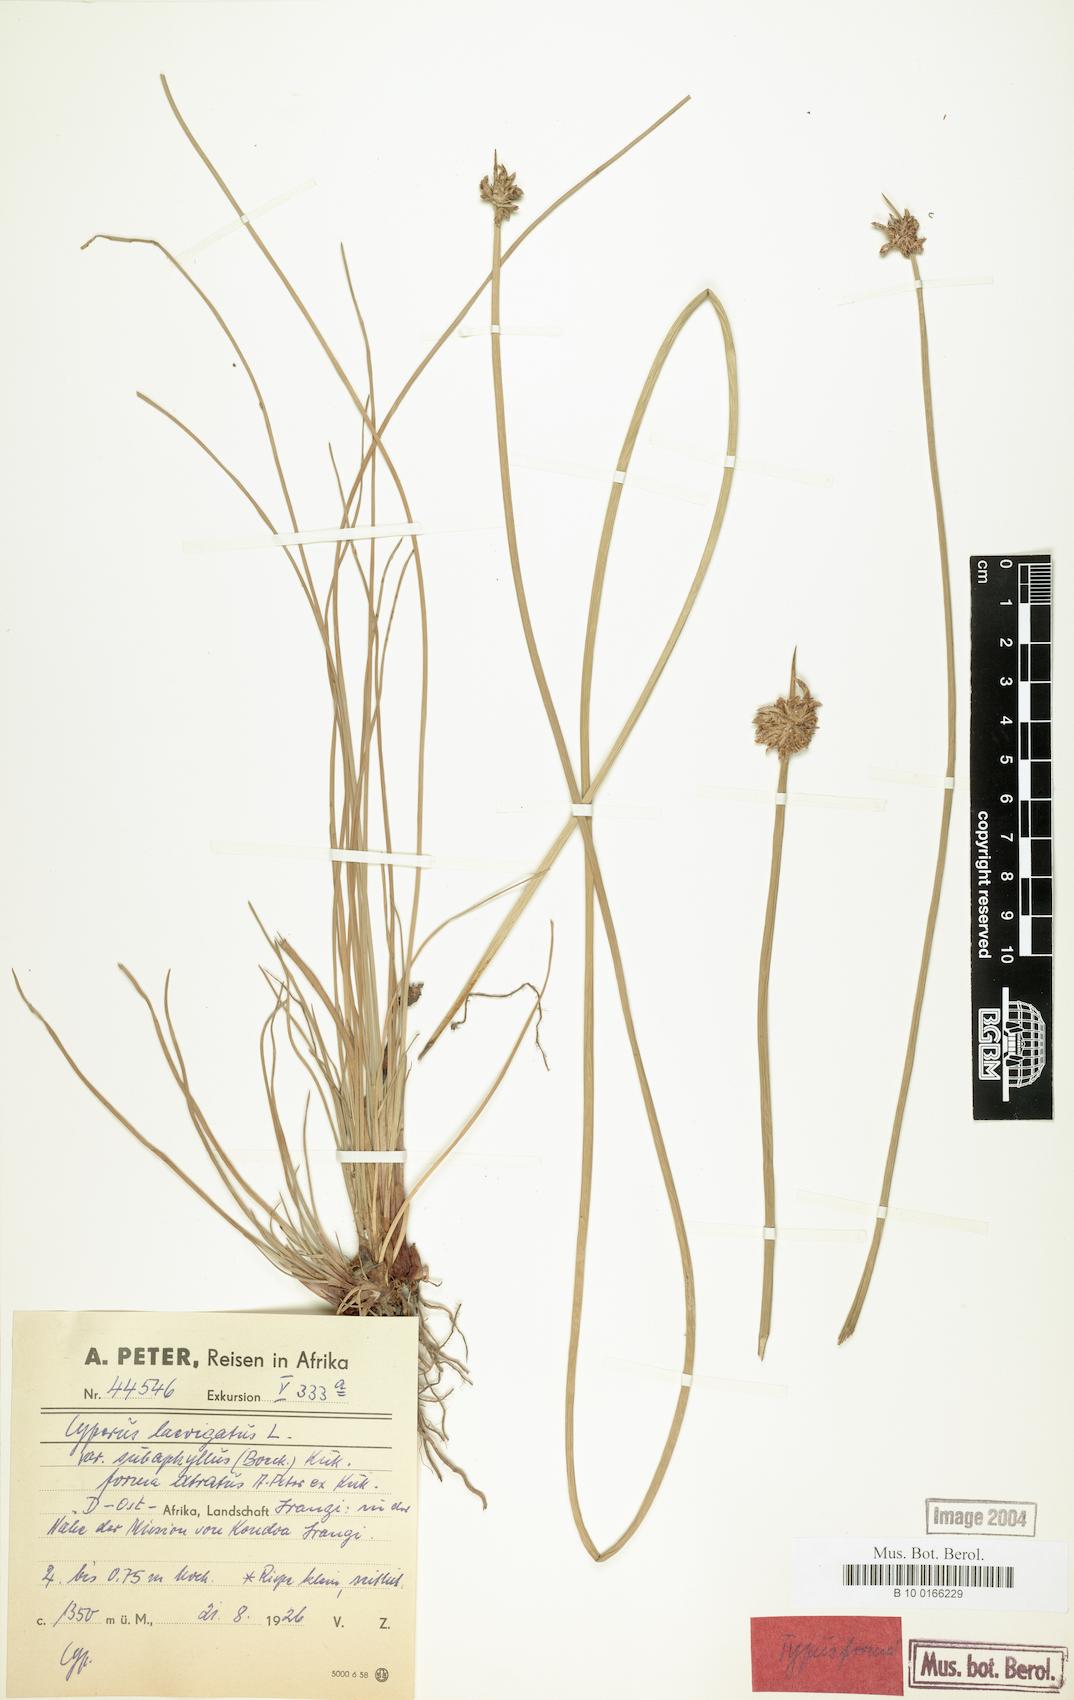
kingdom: Plantae
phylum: Tracheophyta
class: Liliopsida
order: Poales
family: Cyperaceae
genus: Cyperus
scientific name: Cyperus laevigatus
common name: Smooth flat sedge
